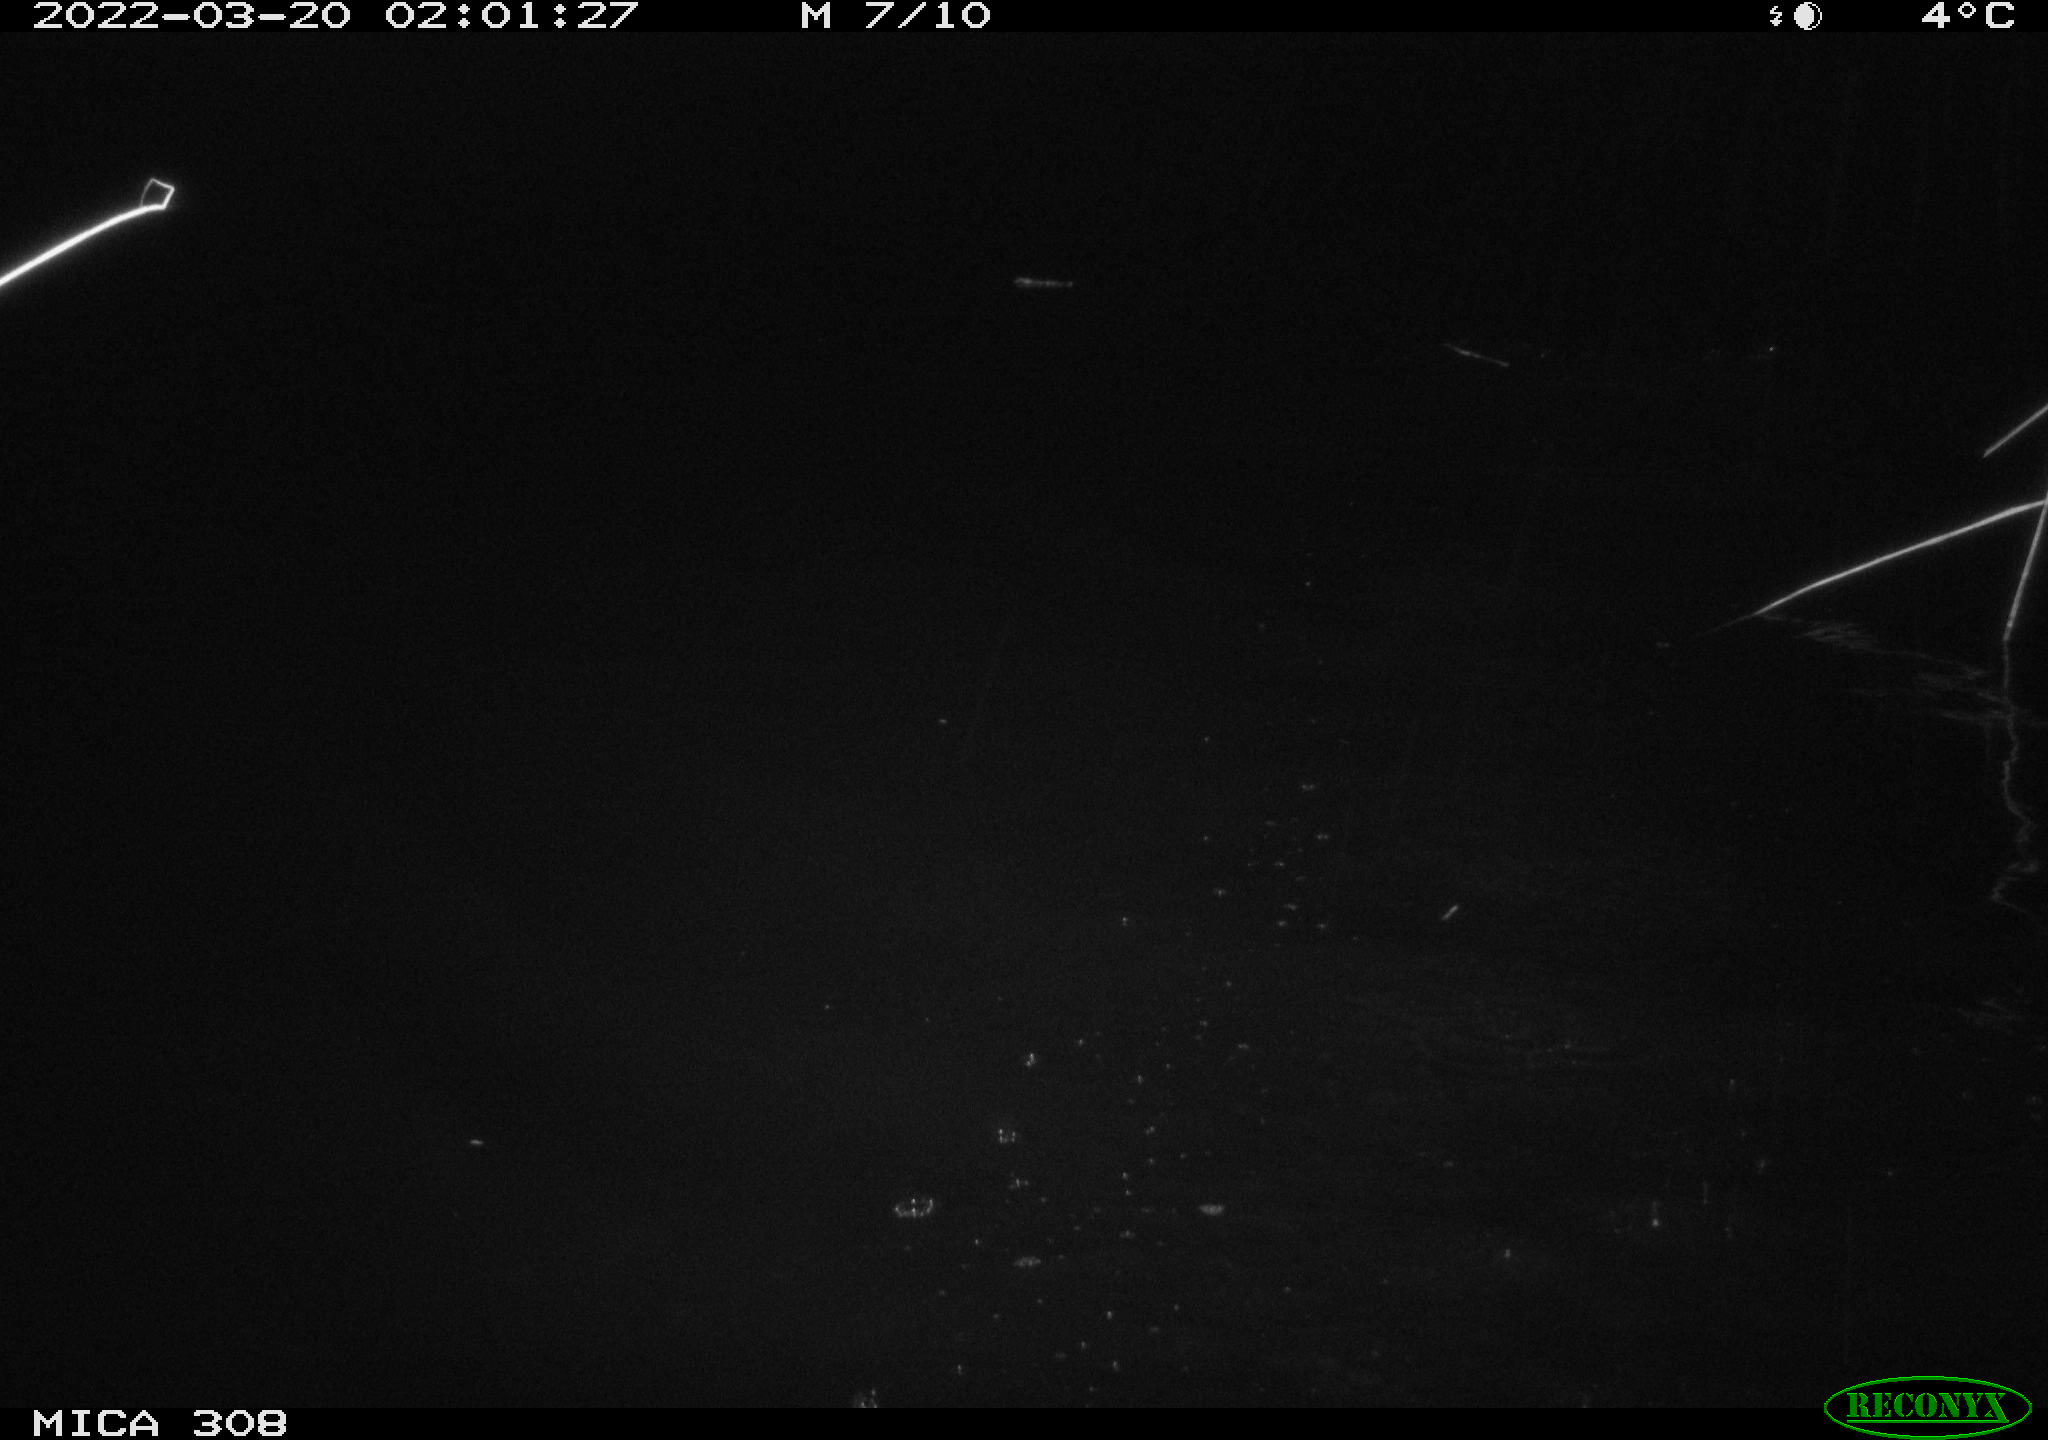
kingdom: Animalia
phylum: Chordata
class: Aves
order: Anseriformes
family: Anatidae
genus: Anas
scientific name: Anas platyrhynchos
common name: Mallard
